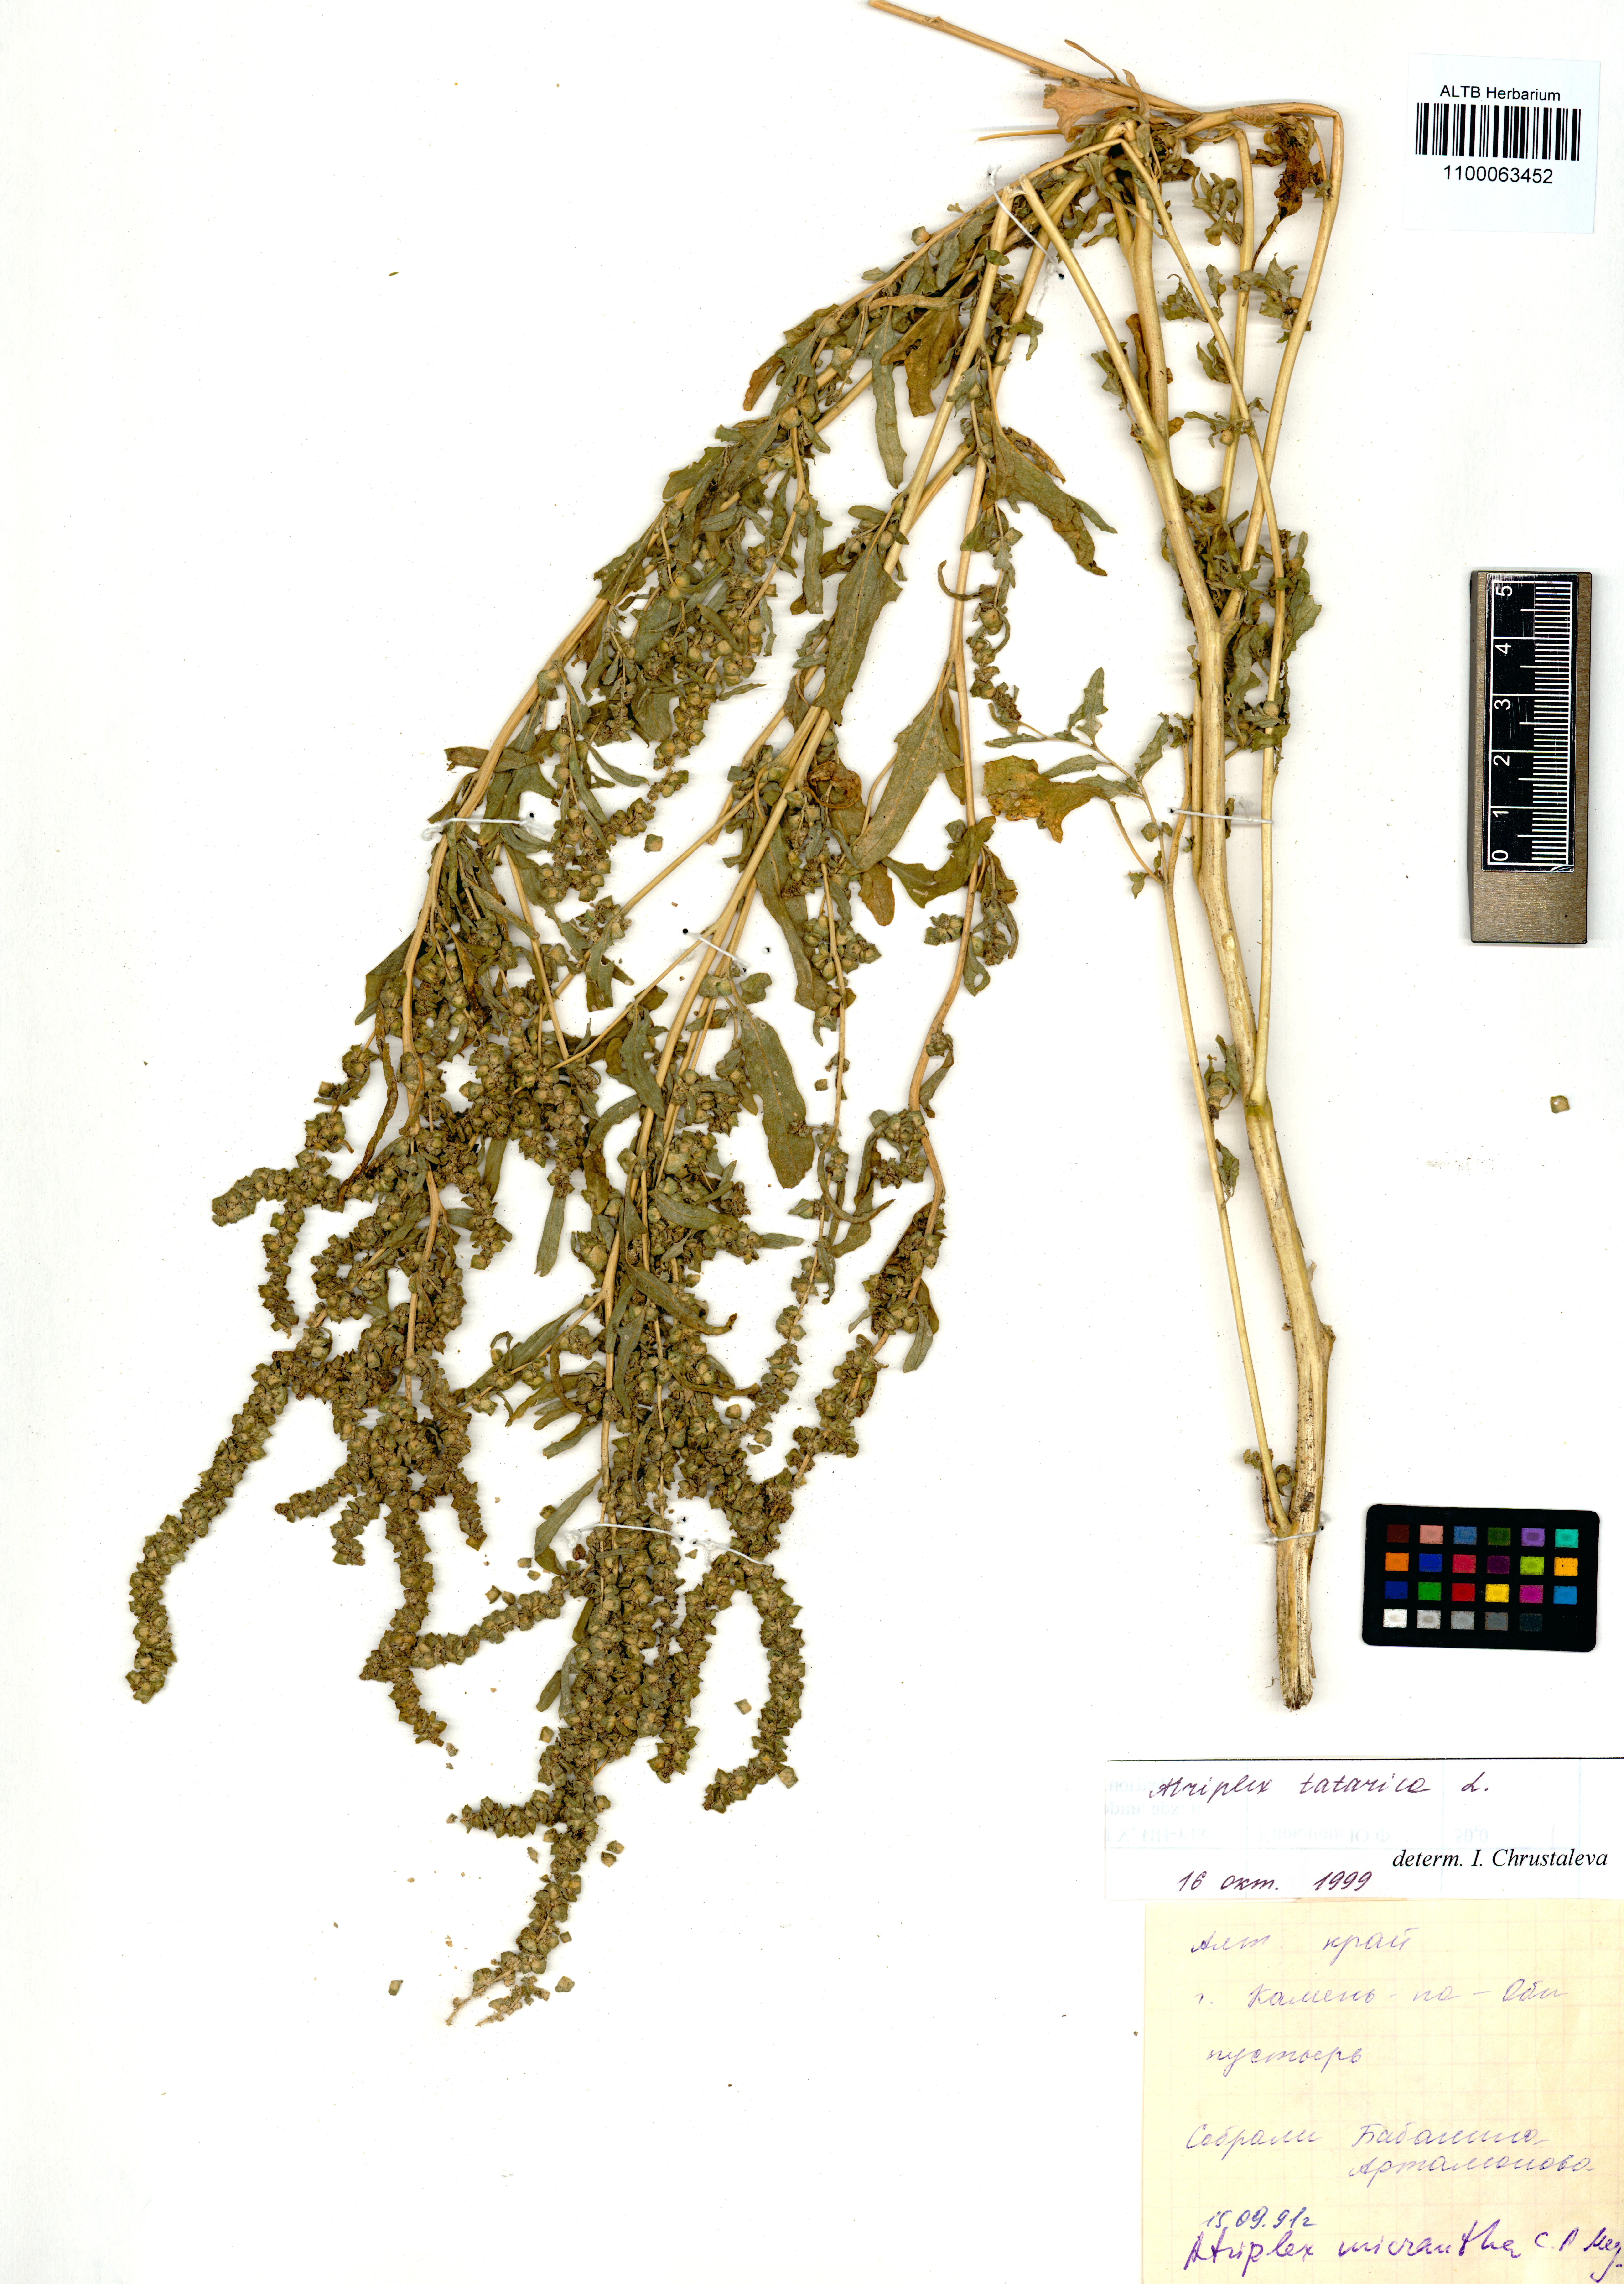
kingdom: Plantae
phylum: Tracheophyta
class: Magnoliopsida
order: Caryophyllales
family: Amaranthaceae
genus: Atriplex
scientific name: Atriplex tatarica
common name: Tatarian orache
